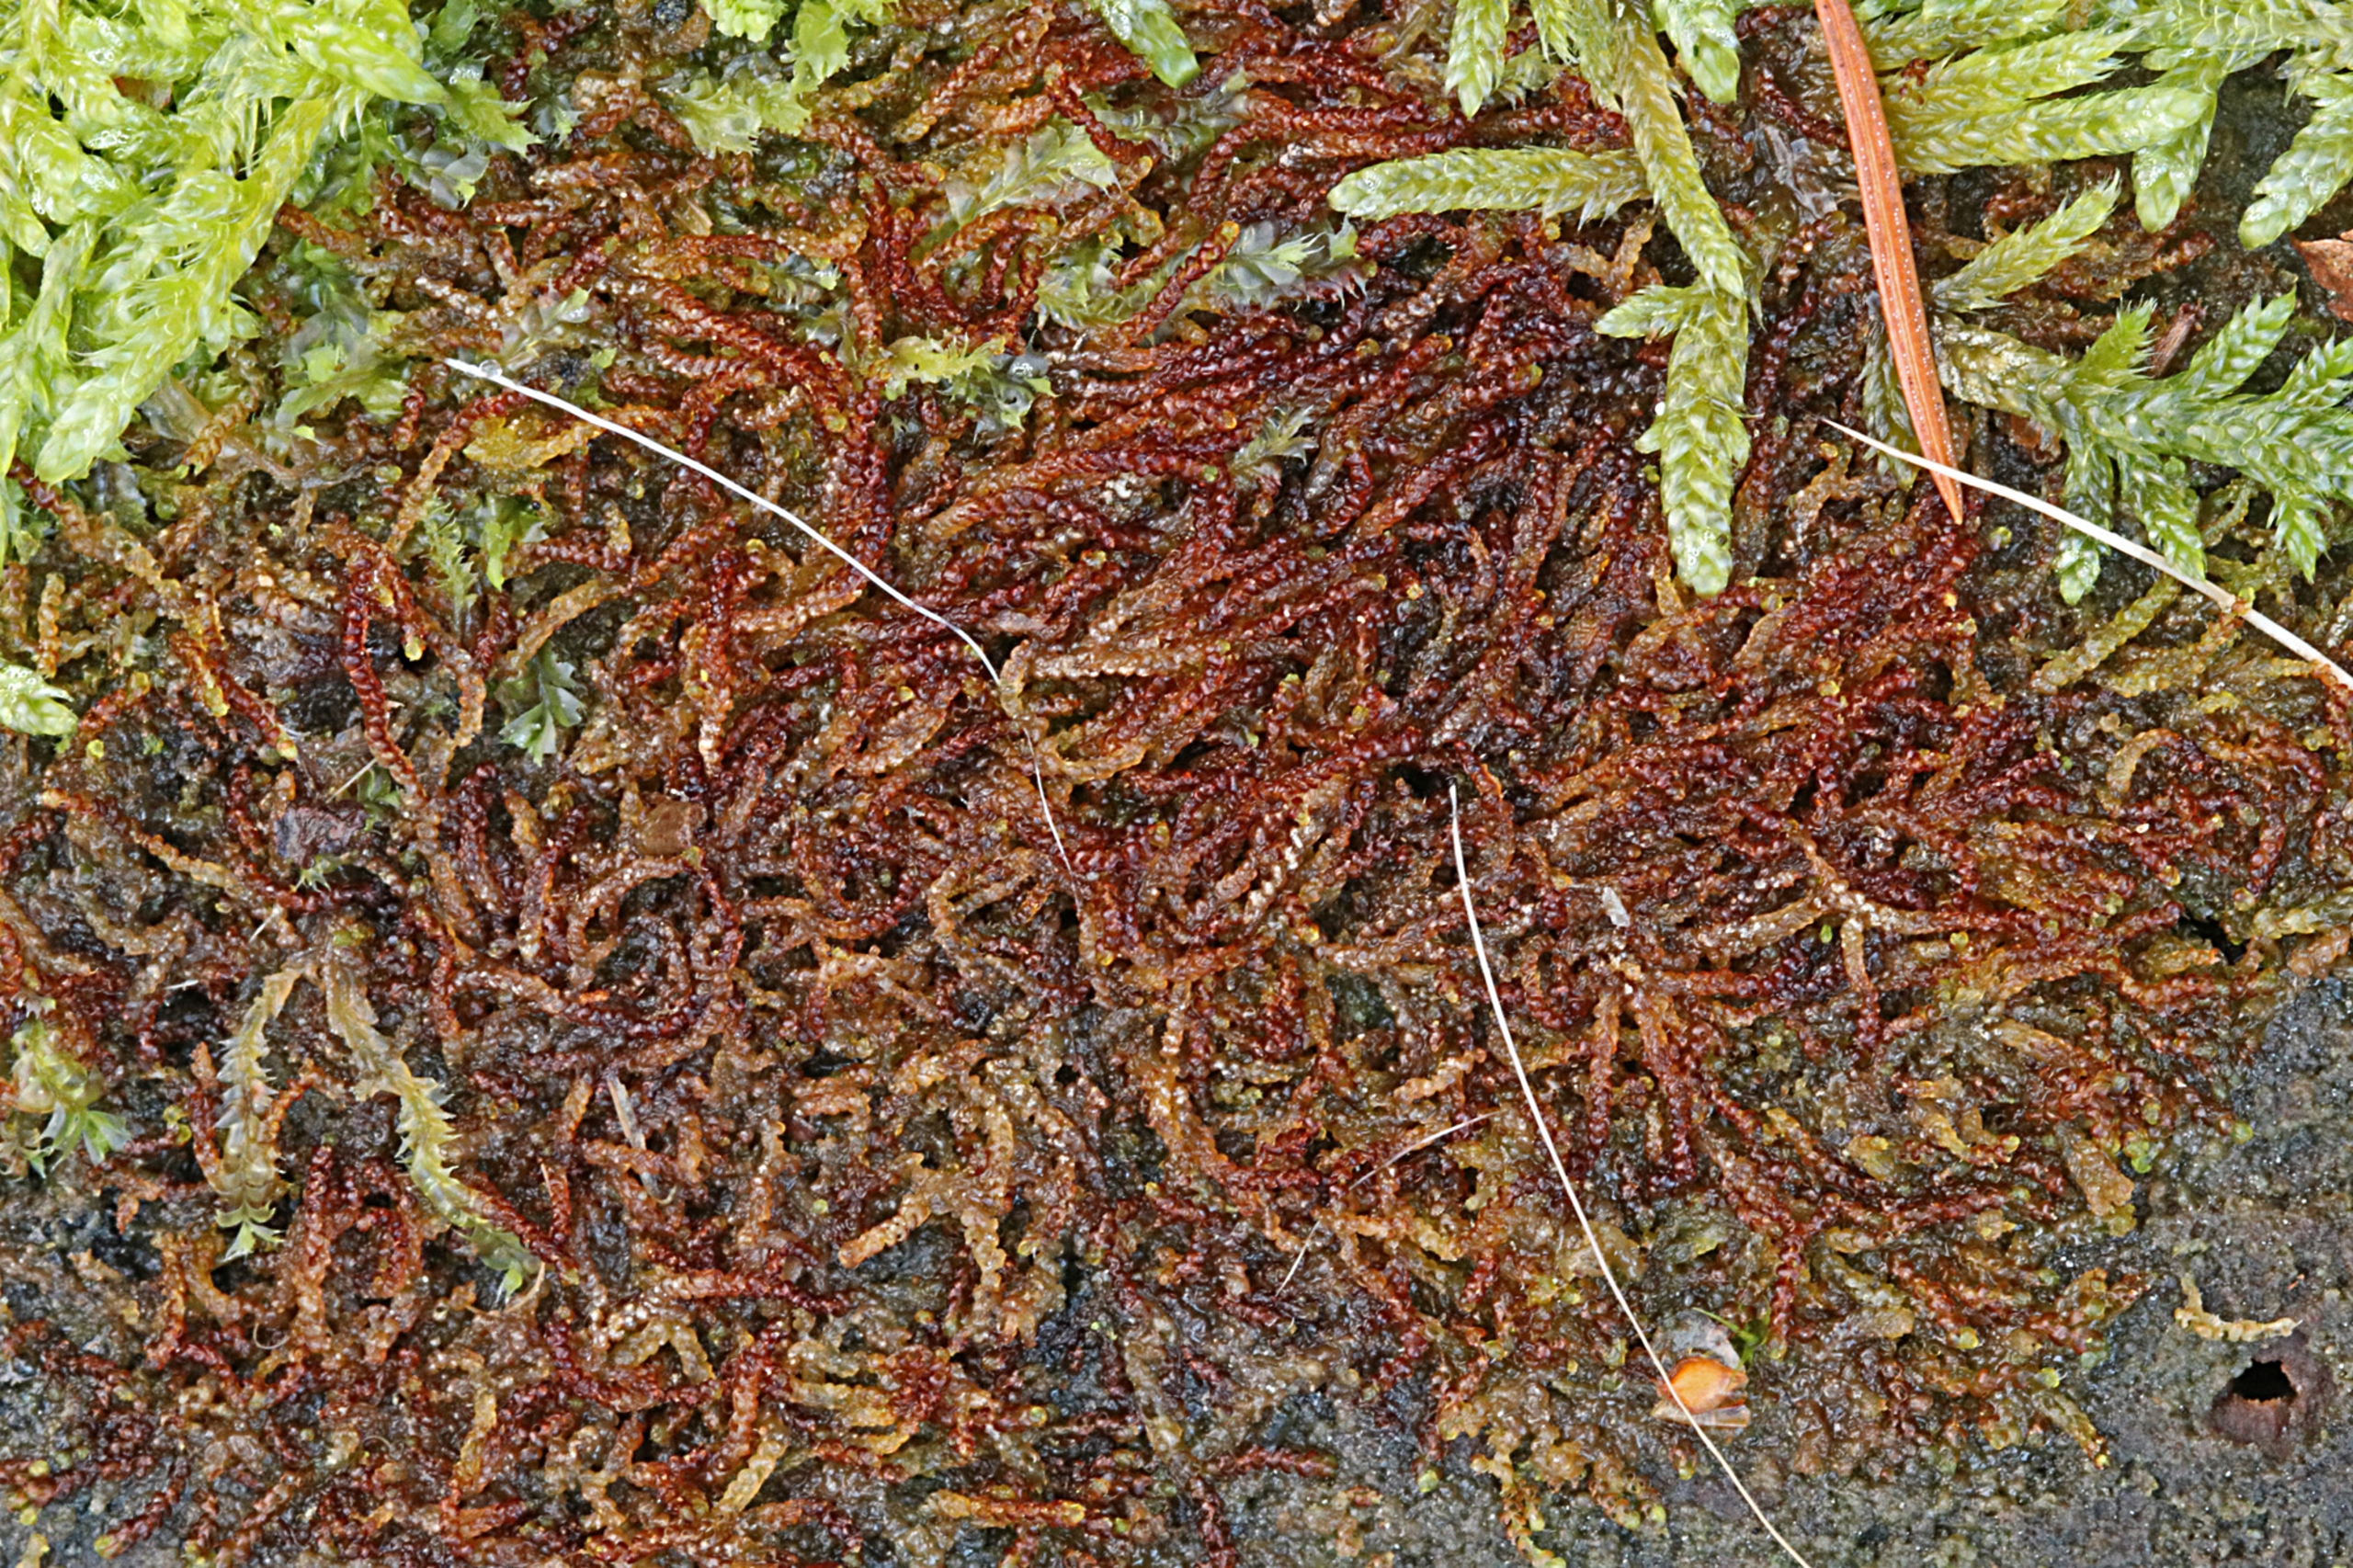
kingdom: Plantae
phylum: Marchantiophyta
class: Jungermanniopsida
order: Jungermanniales
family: Cephaloziaceae
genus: Nowellia
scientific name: Nowellia curvifolia
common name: Krumbladet stødmos
